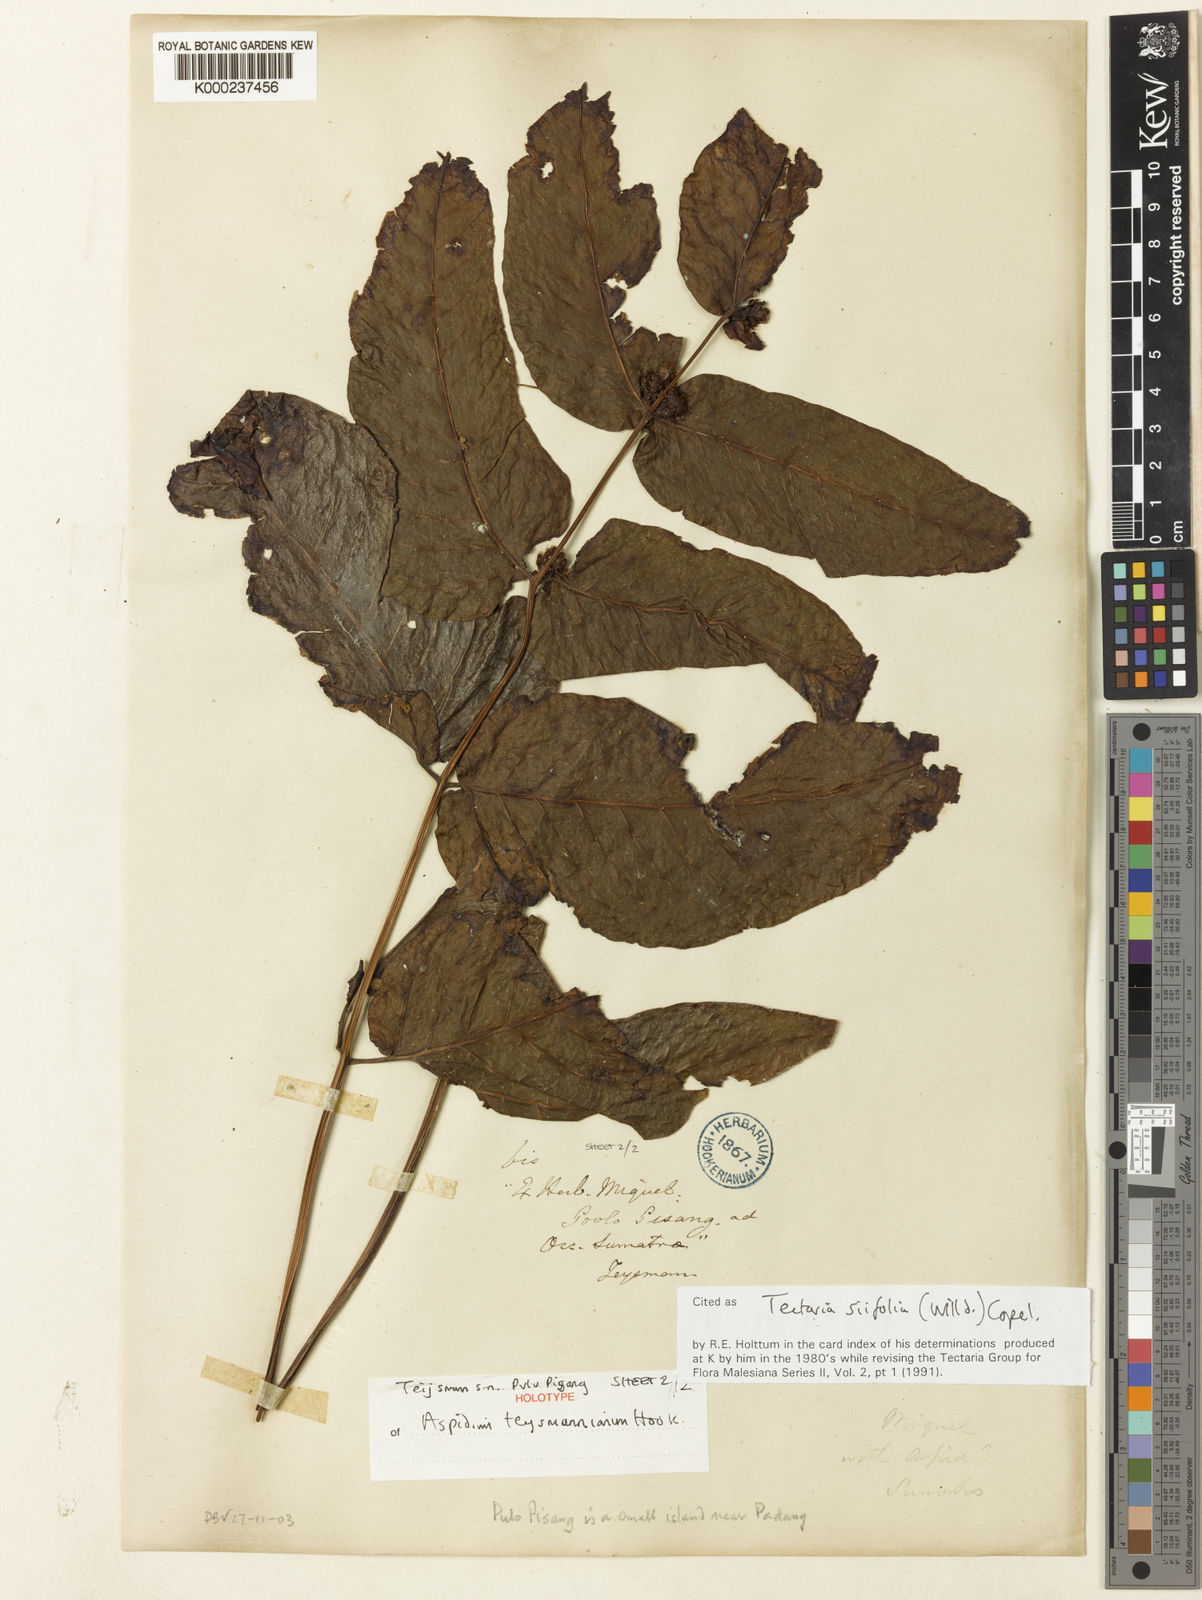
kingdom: Plantae
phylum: Tracheophyta
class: Polypodiopsida
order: Polypodiales
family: Tectariaceae
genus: Tectaria
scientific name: Tectaria siifolia
